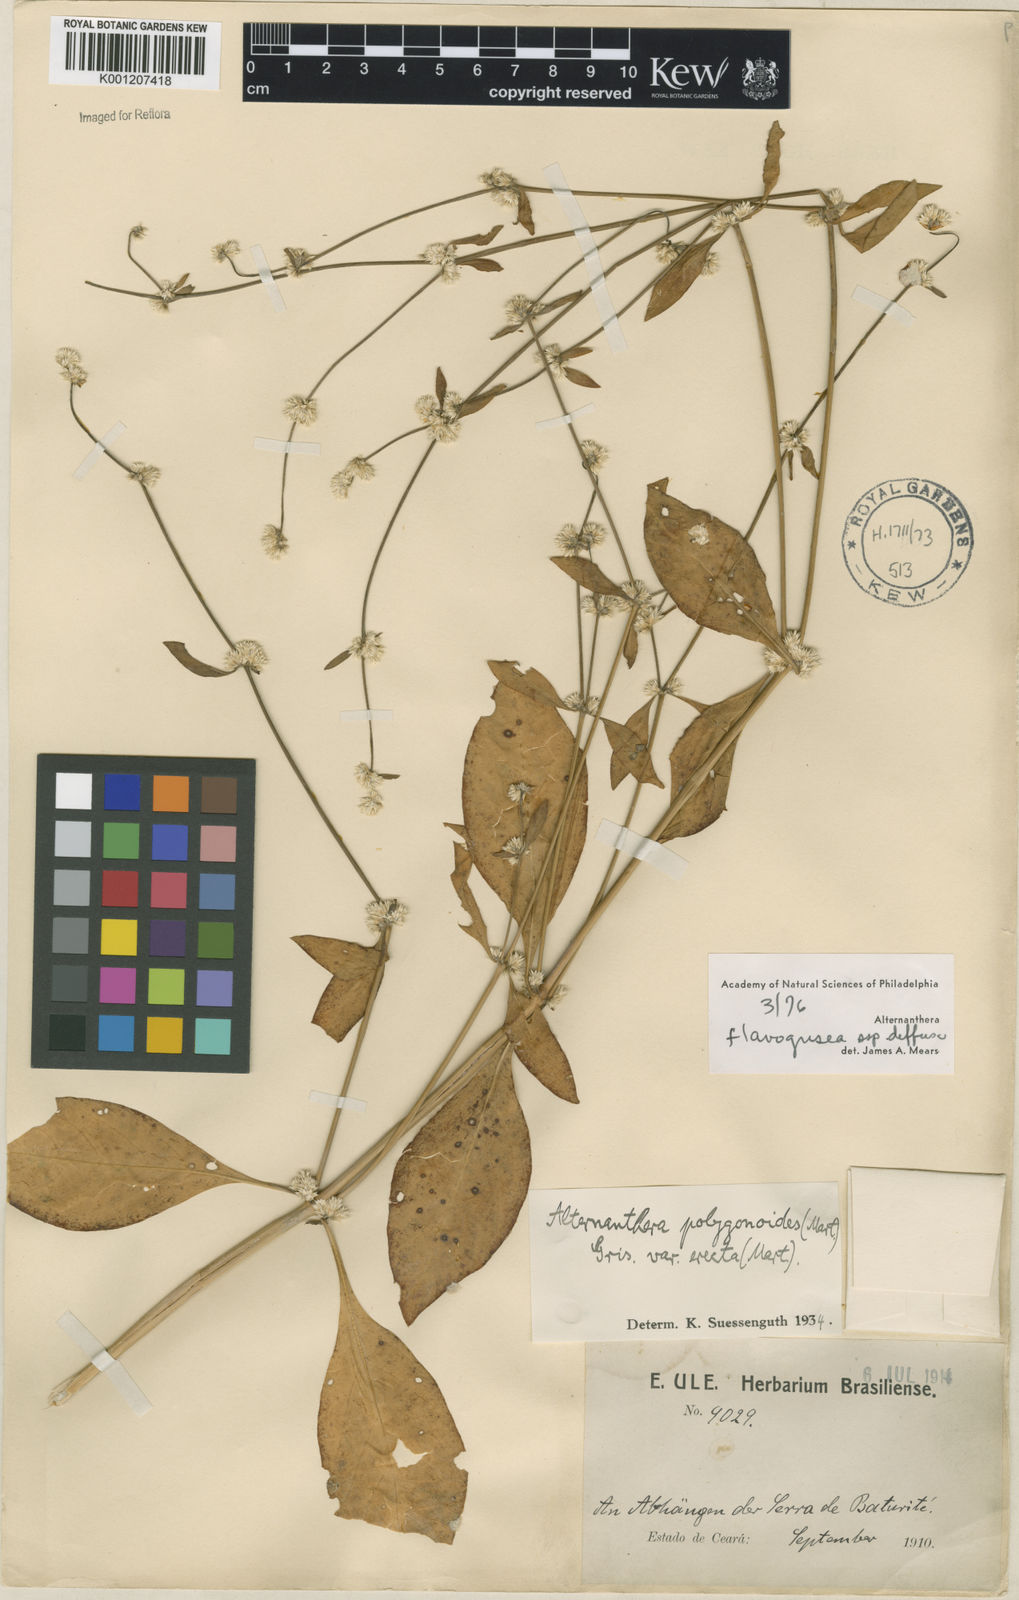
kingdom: Plantae
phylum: Tracheophyta
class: Magnoliopsida
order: Caryophyllales
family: Amaranthaceae
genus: Alternanthera
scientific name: Alternanthera halimifolia
